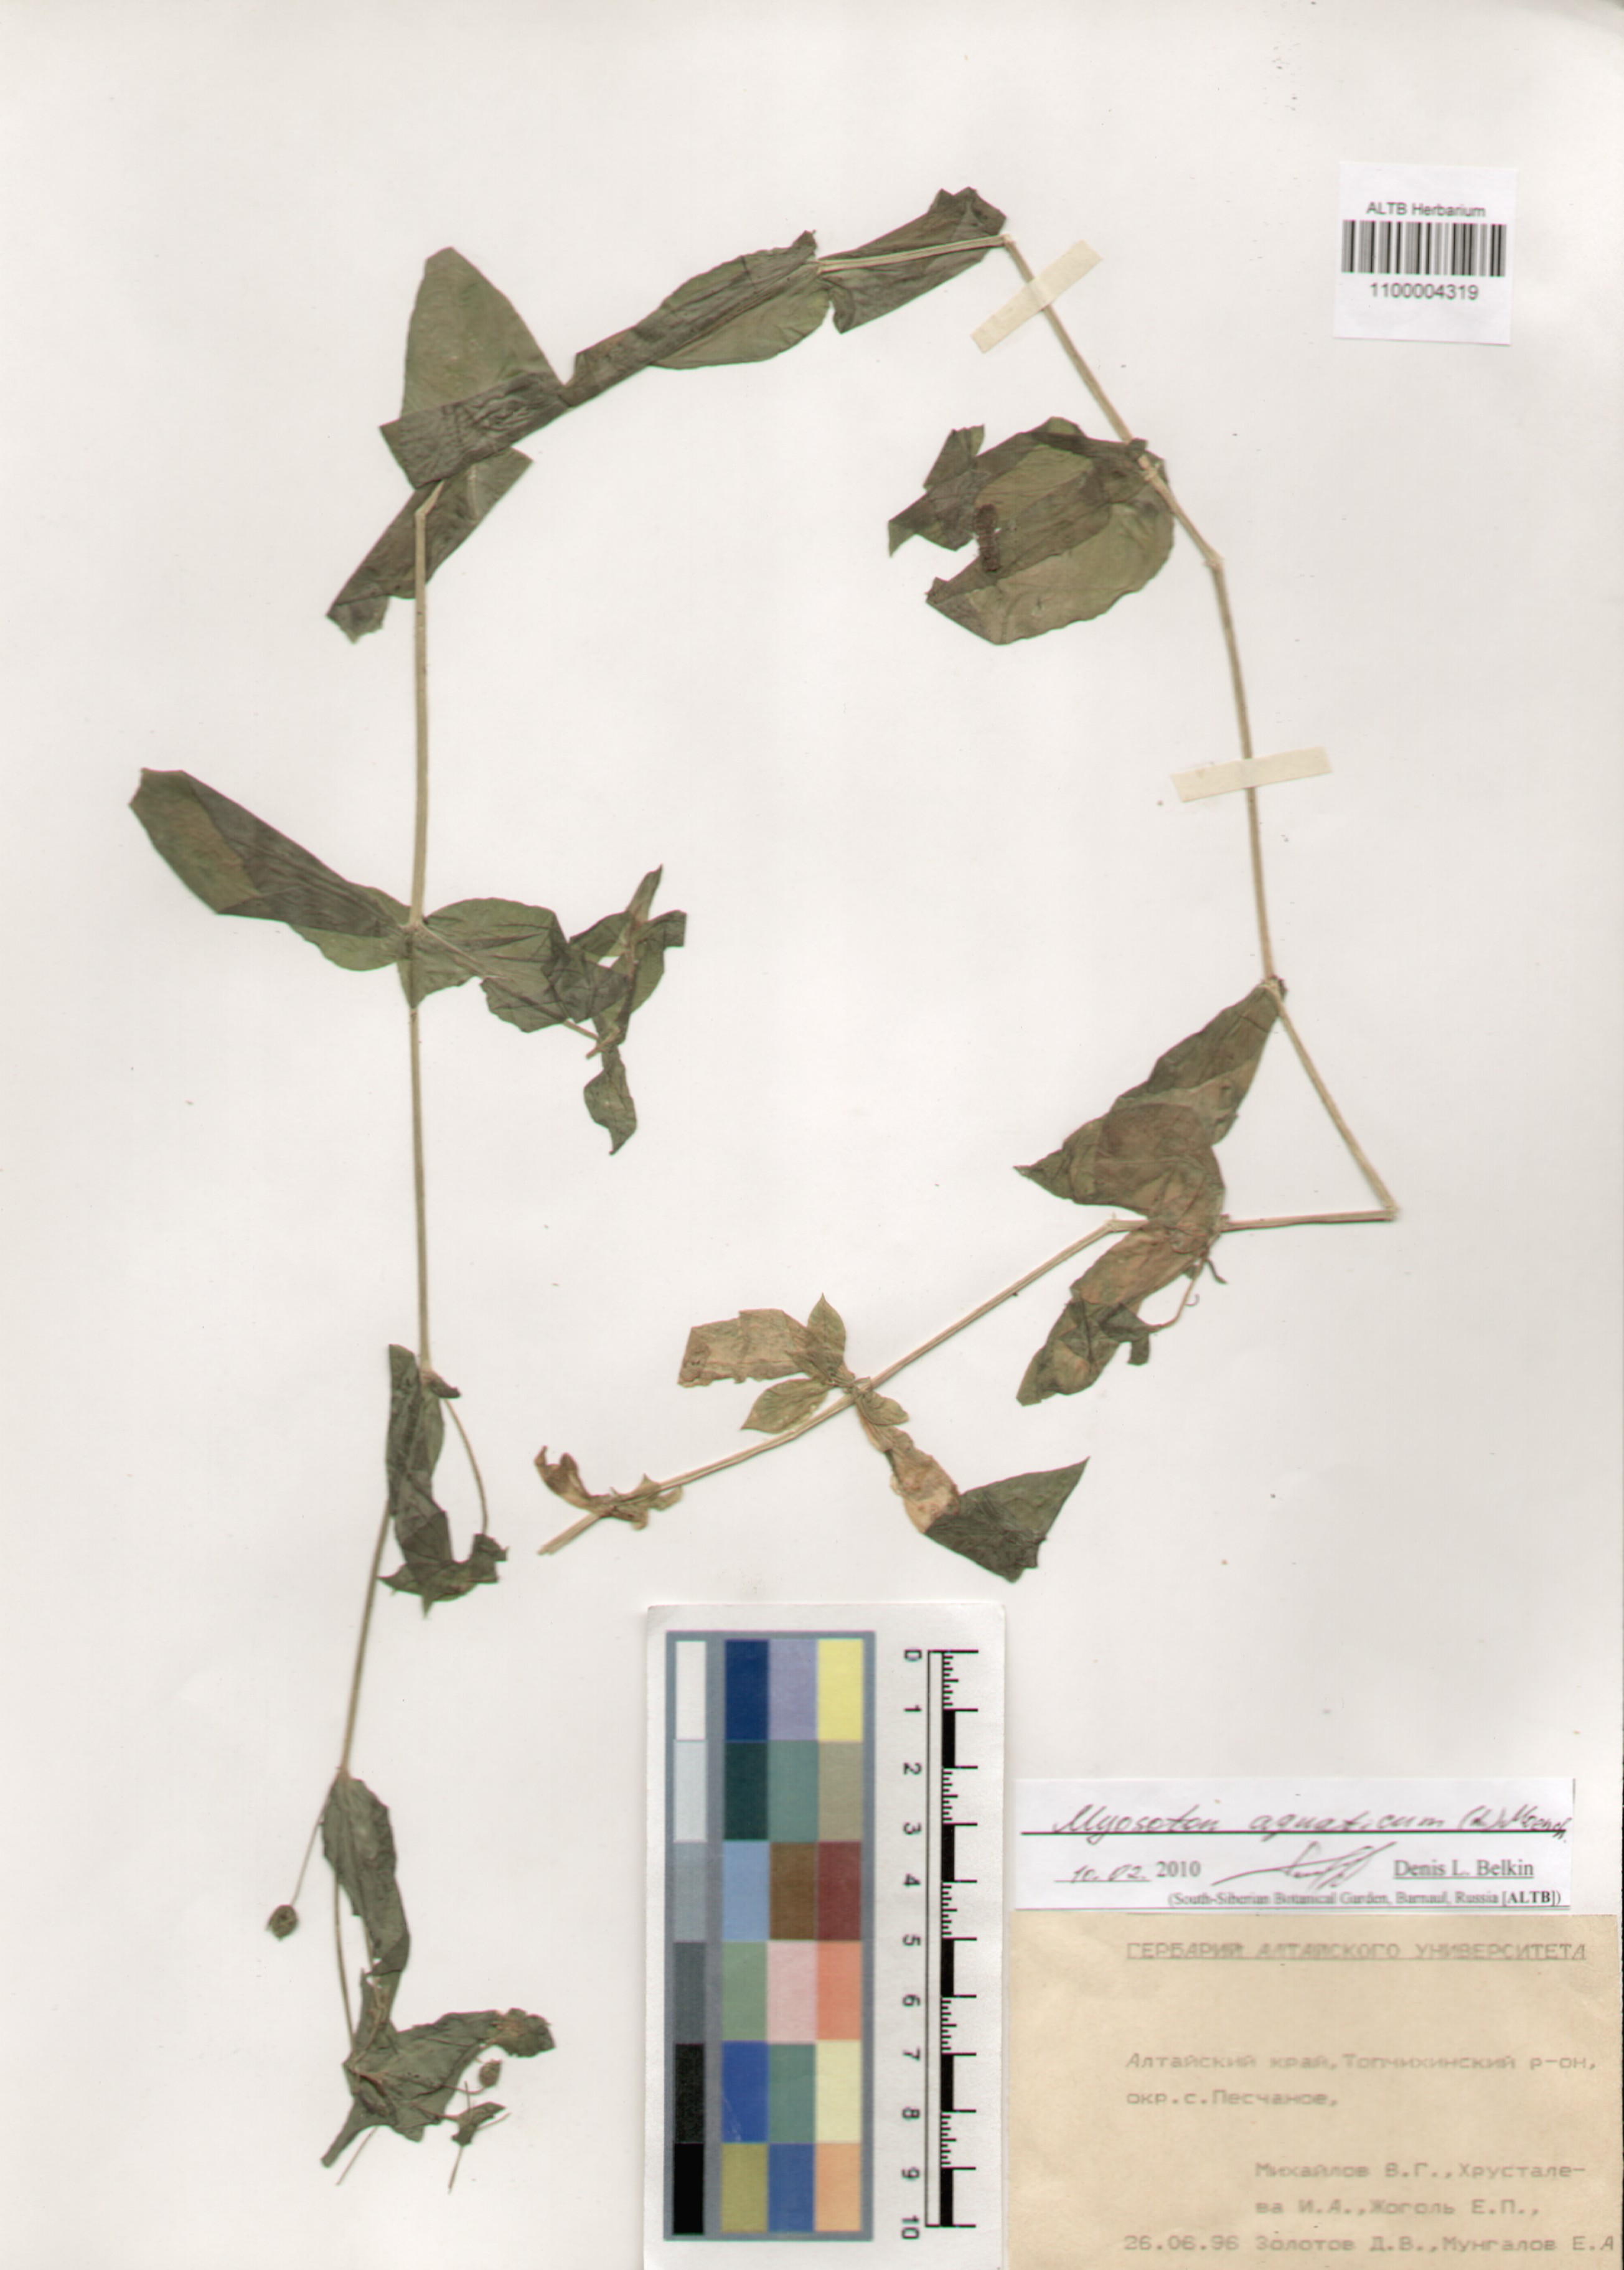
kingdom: Plantae
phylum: Tracheophyta
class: Magnoliopsida
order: Caryophyllales
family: Caryophyllaceae
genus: Stellaria
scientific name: Stellaria aquatica
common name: Water chickweed
